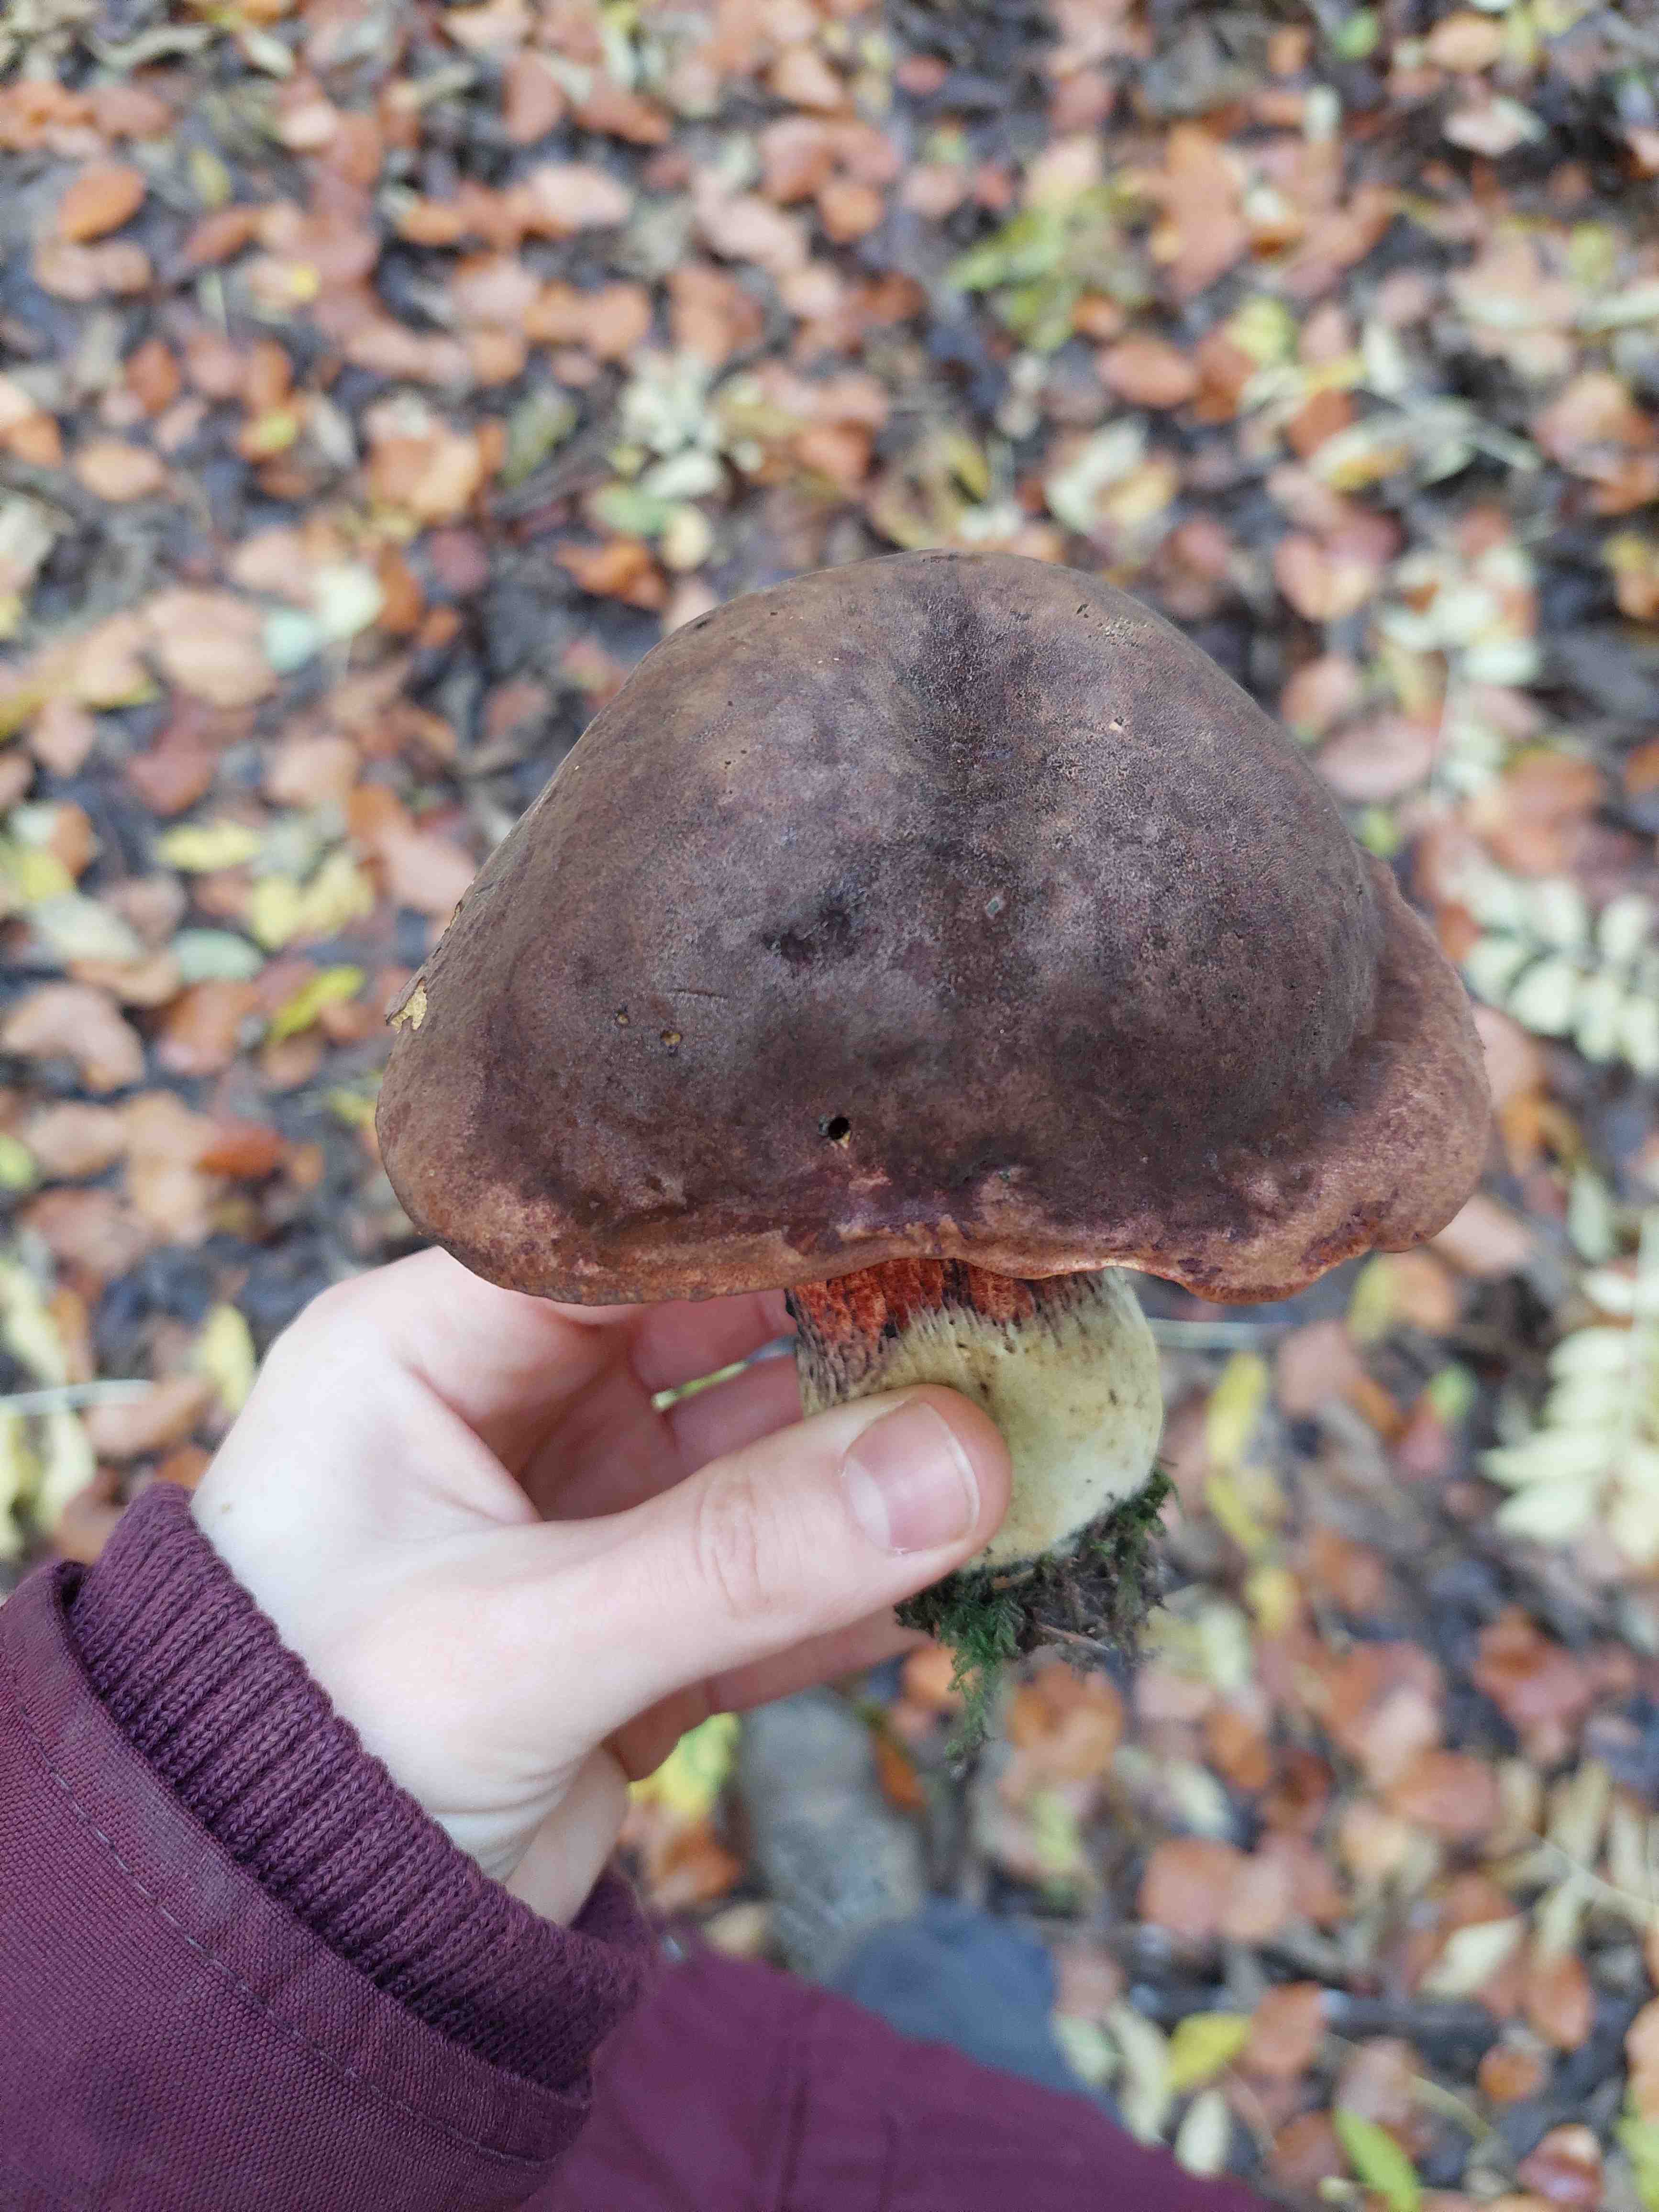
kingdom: Fungi
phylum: Basidiomycota
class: Agaricomycetes
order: Boletales
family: Boletaceae
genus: Neoboletus
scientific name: Neoboletus erythropus
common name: punktstokket indigorørhat
